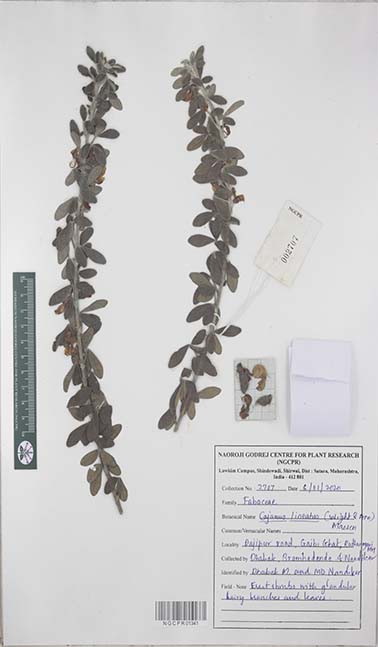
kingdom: Plantae
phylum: Tracheophyta
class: Magnoliopsida
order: Fabales
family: Fabaceae
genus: Cajanus
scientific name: Cajanus lineatus
